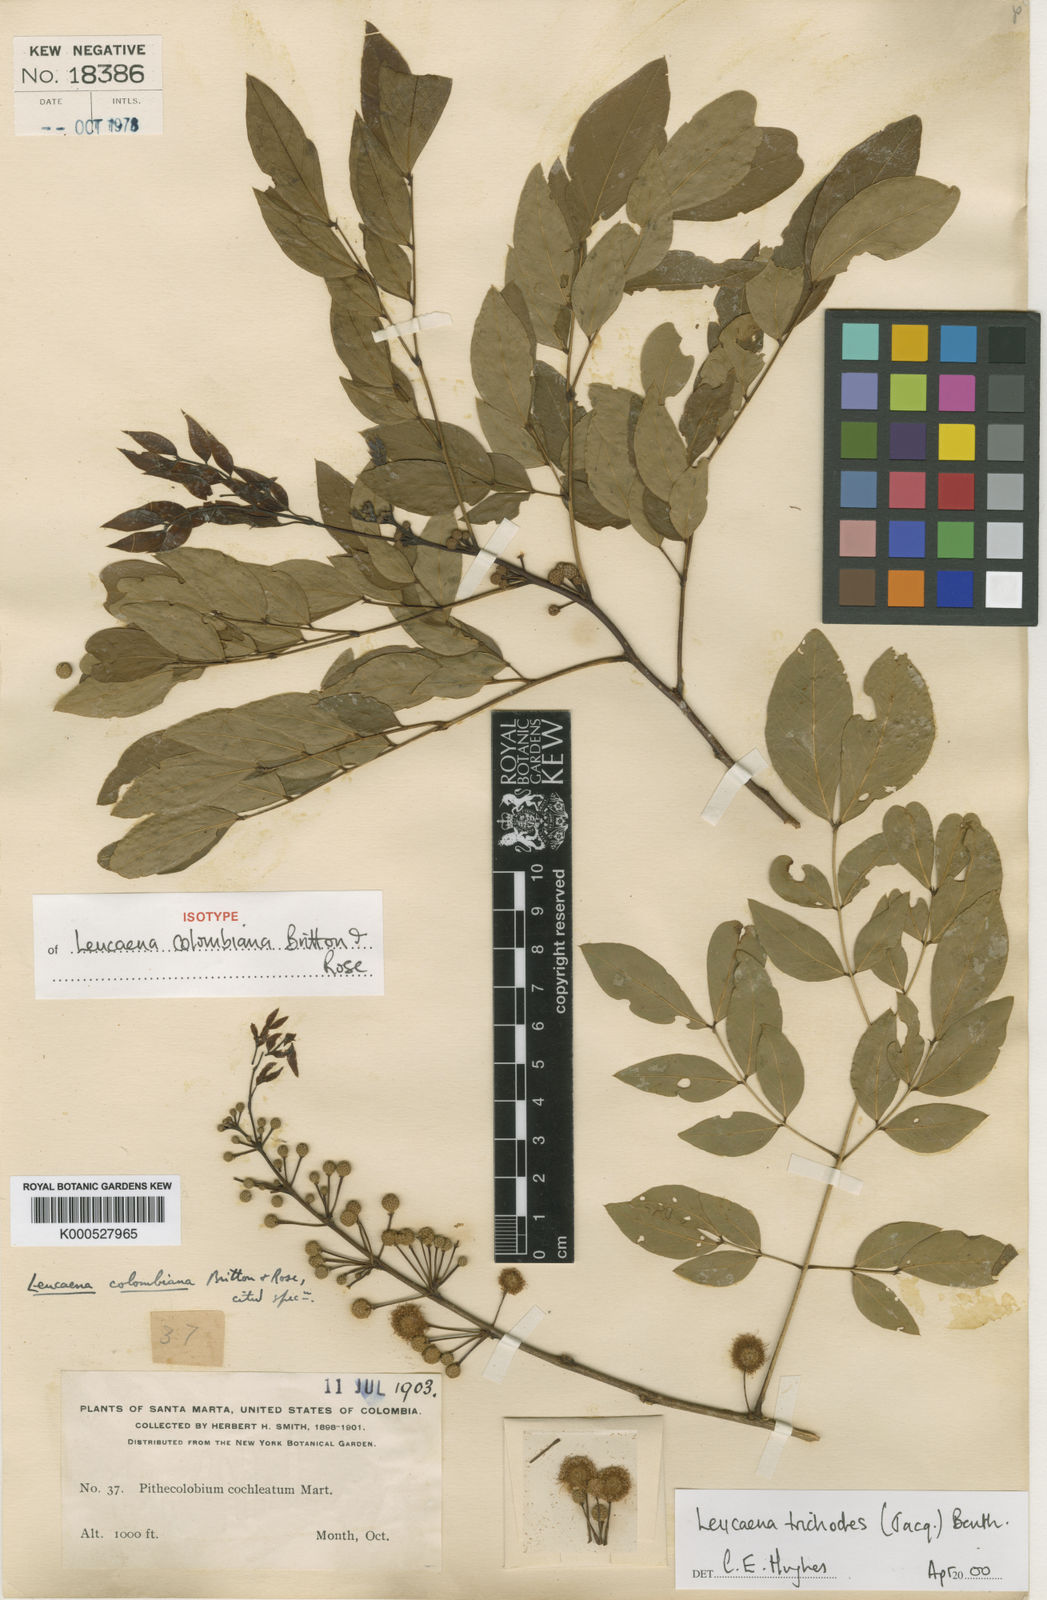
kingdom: Plantae
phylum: Tracheophyta
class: Magnoliopsida
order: Fabales
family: Fabaceae
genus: Leucaena
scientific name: Leucaena trichodes
